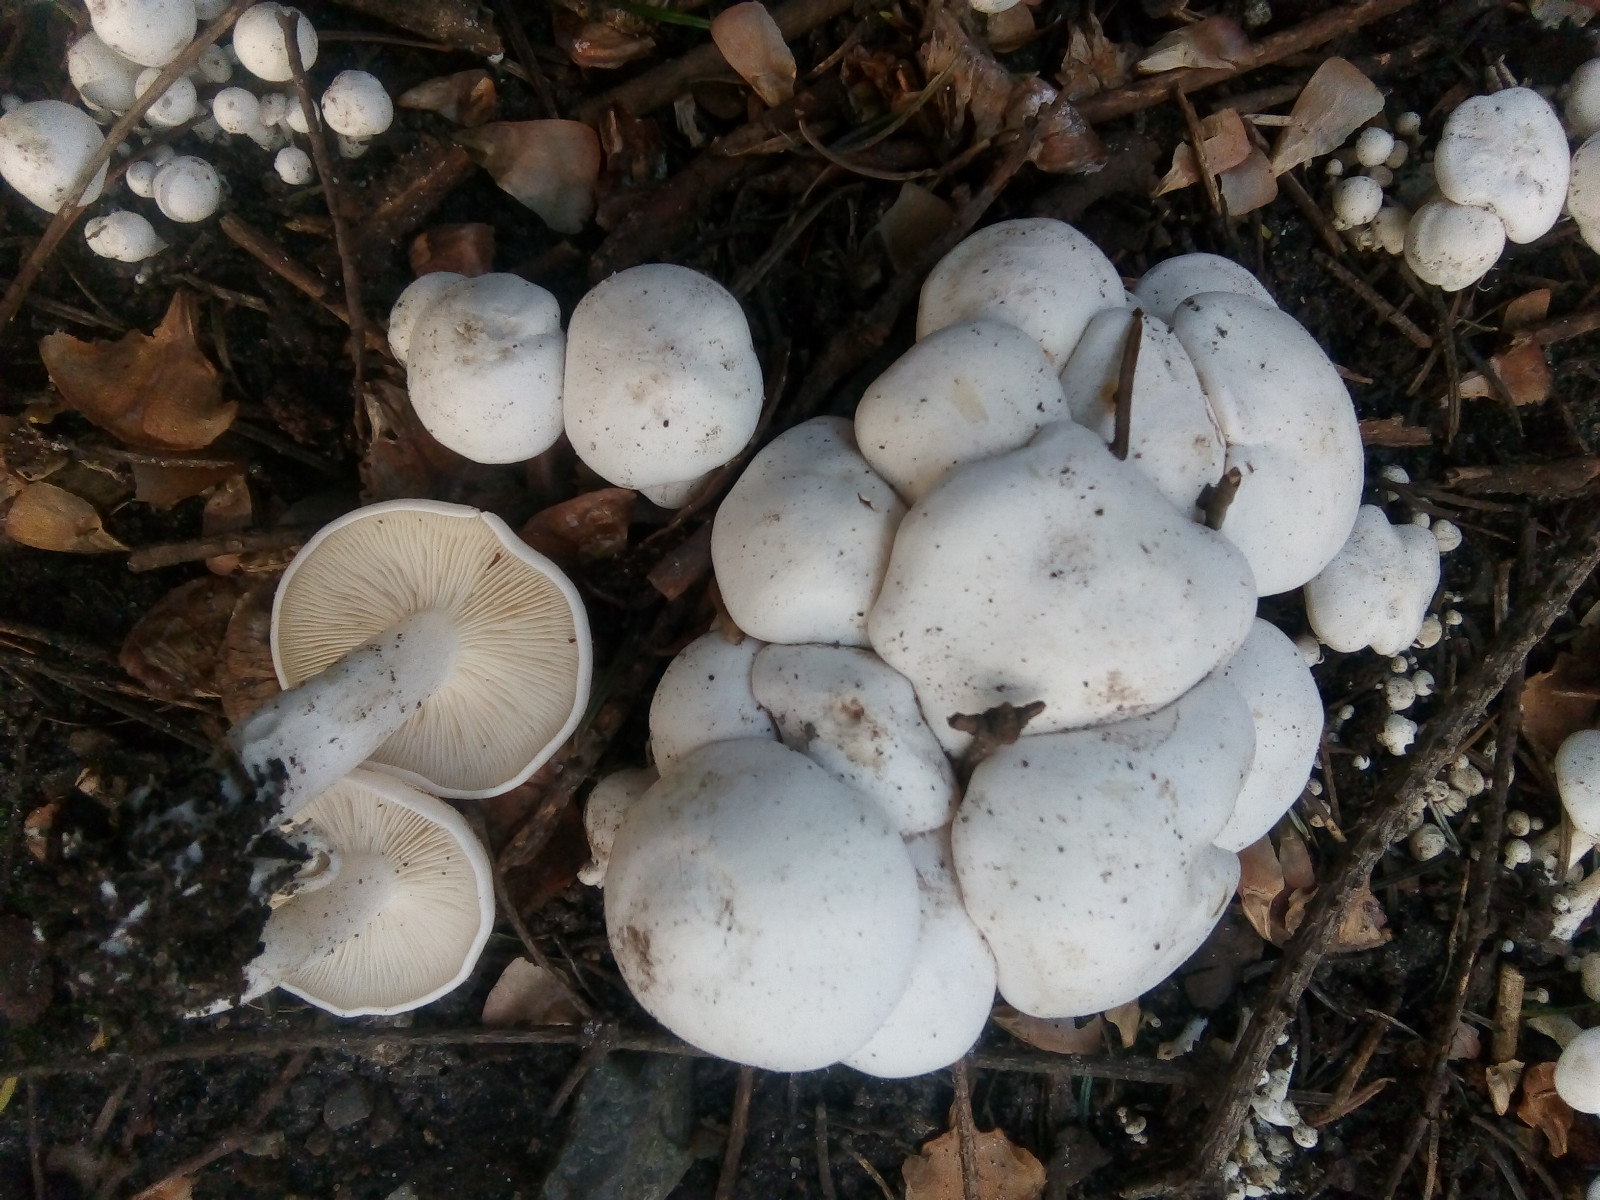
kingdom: Fungi
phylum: Basidiomycota
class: Agaricomycetes
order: Agaricales
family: Tricholomataceae
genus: Leucocybe
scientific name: Leucocybe connata
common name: knippe-tragthat
